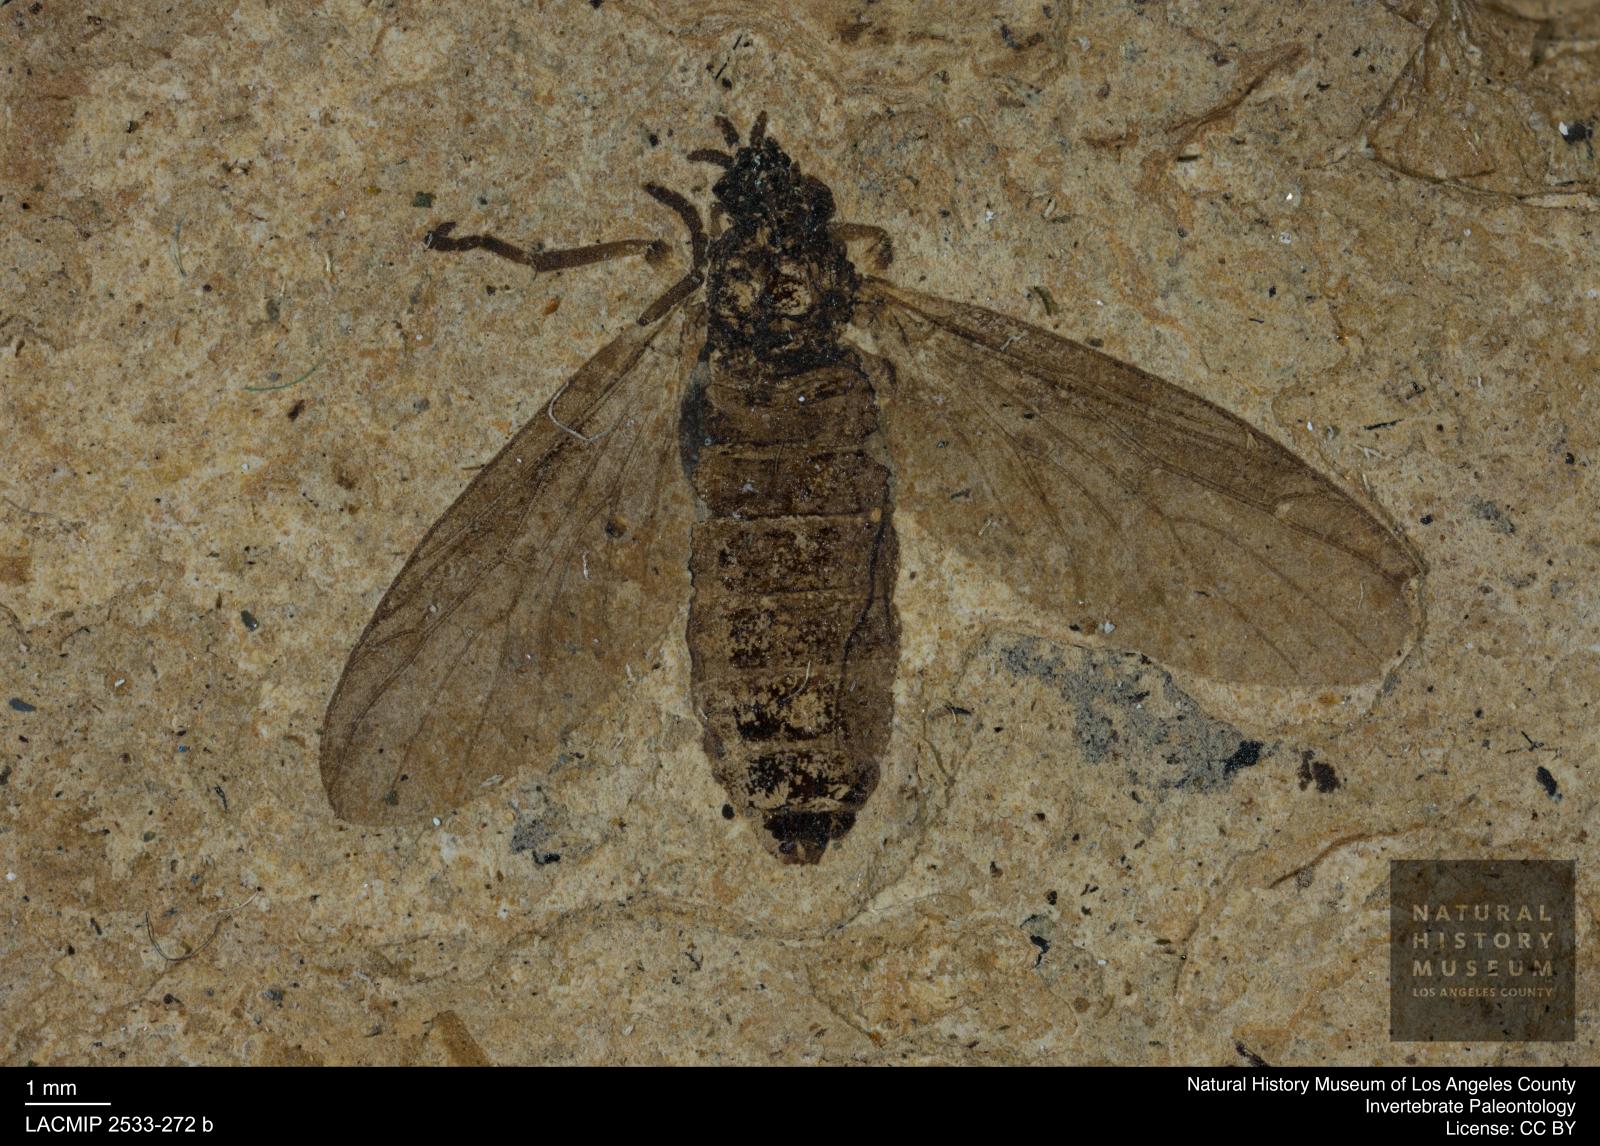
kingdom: Animalia
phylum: Arthropoda
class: Insecta
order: Diptera
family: Bibionidae
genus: Plecia
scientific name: Plecia grossa
